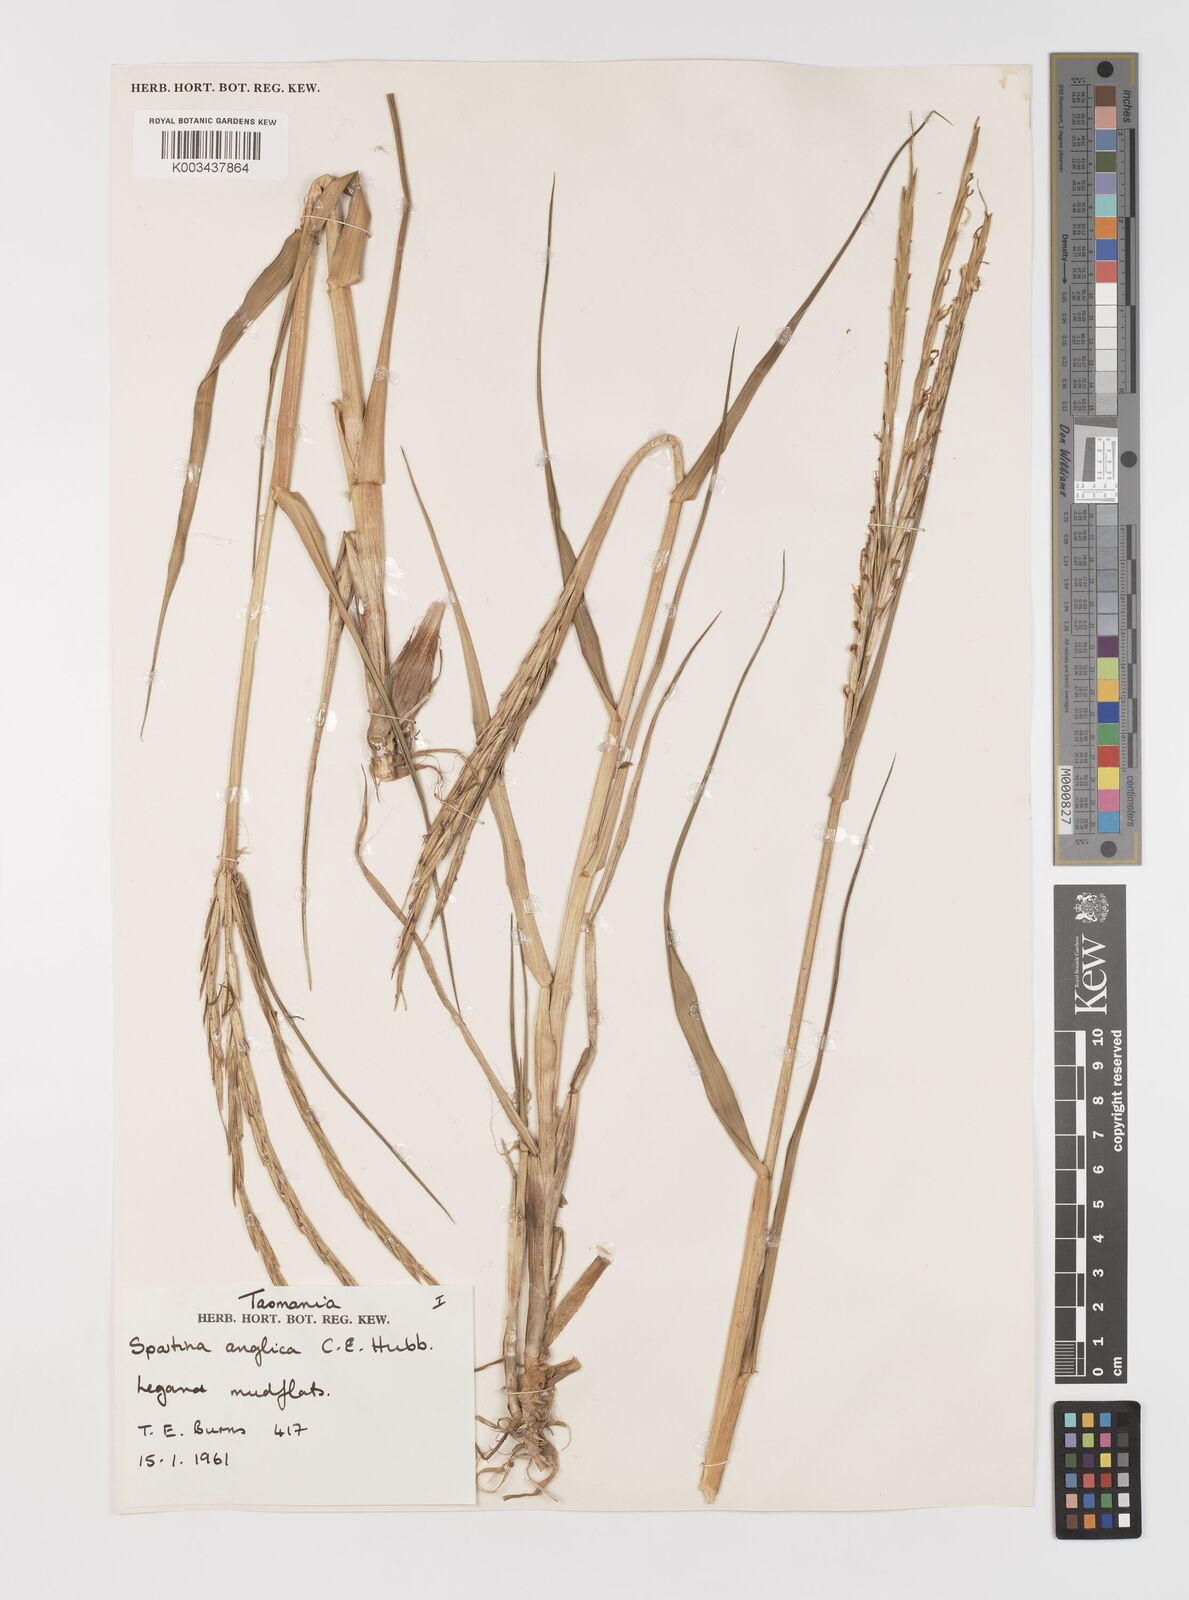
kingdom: Plantae
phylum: Tracheophyta
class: Liliopsida
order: Poales
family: Poaceae
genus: Sporobolus
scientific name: Sporobolus anglicus
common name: English cordgrass
